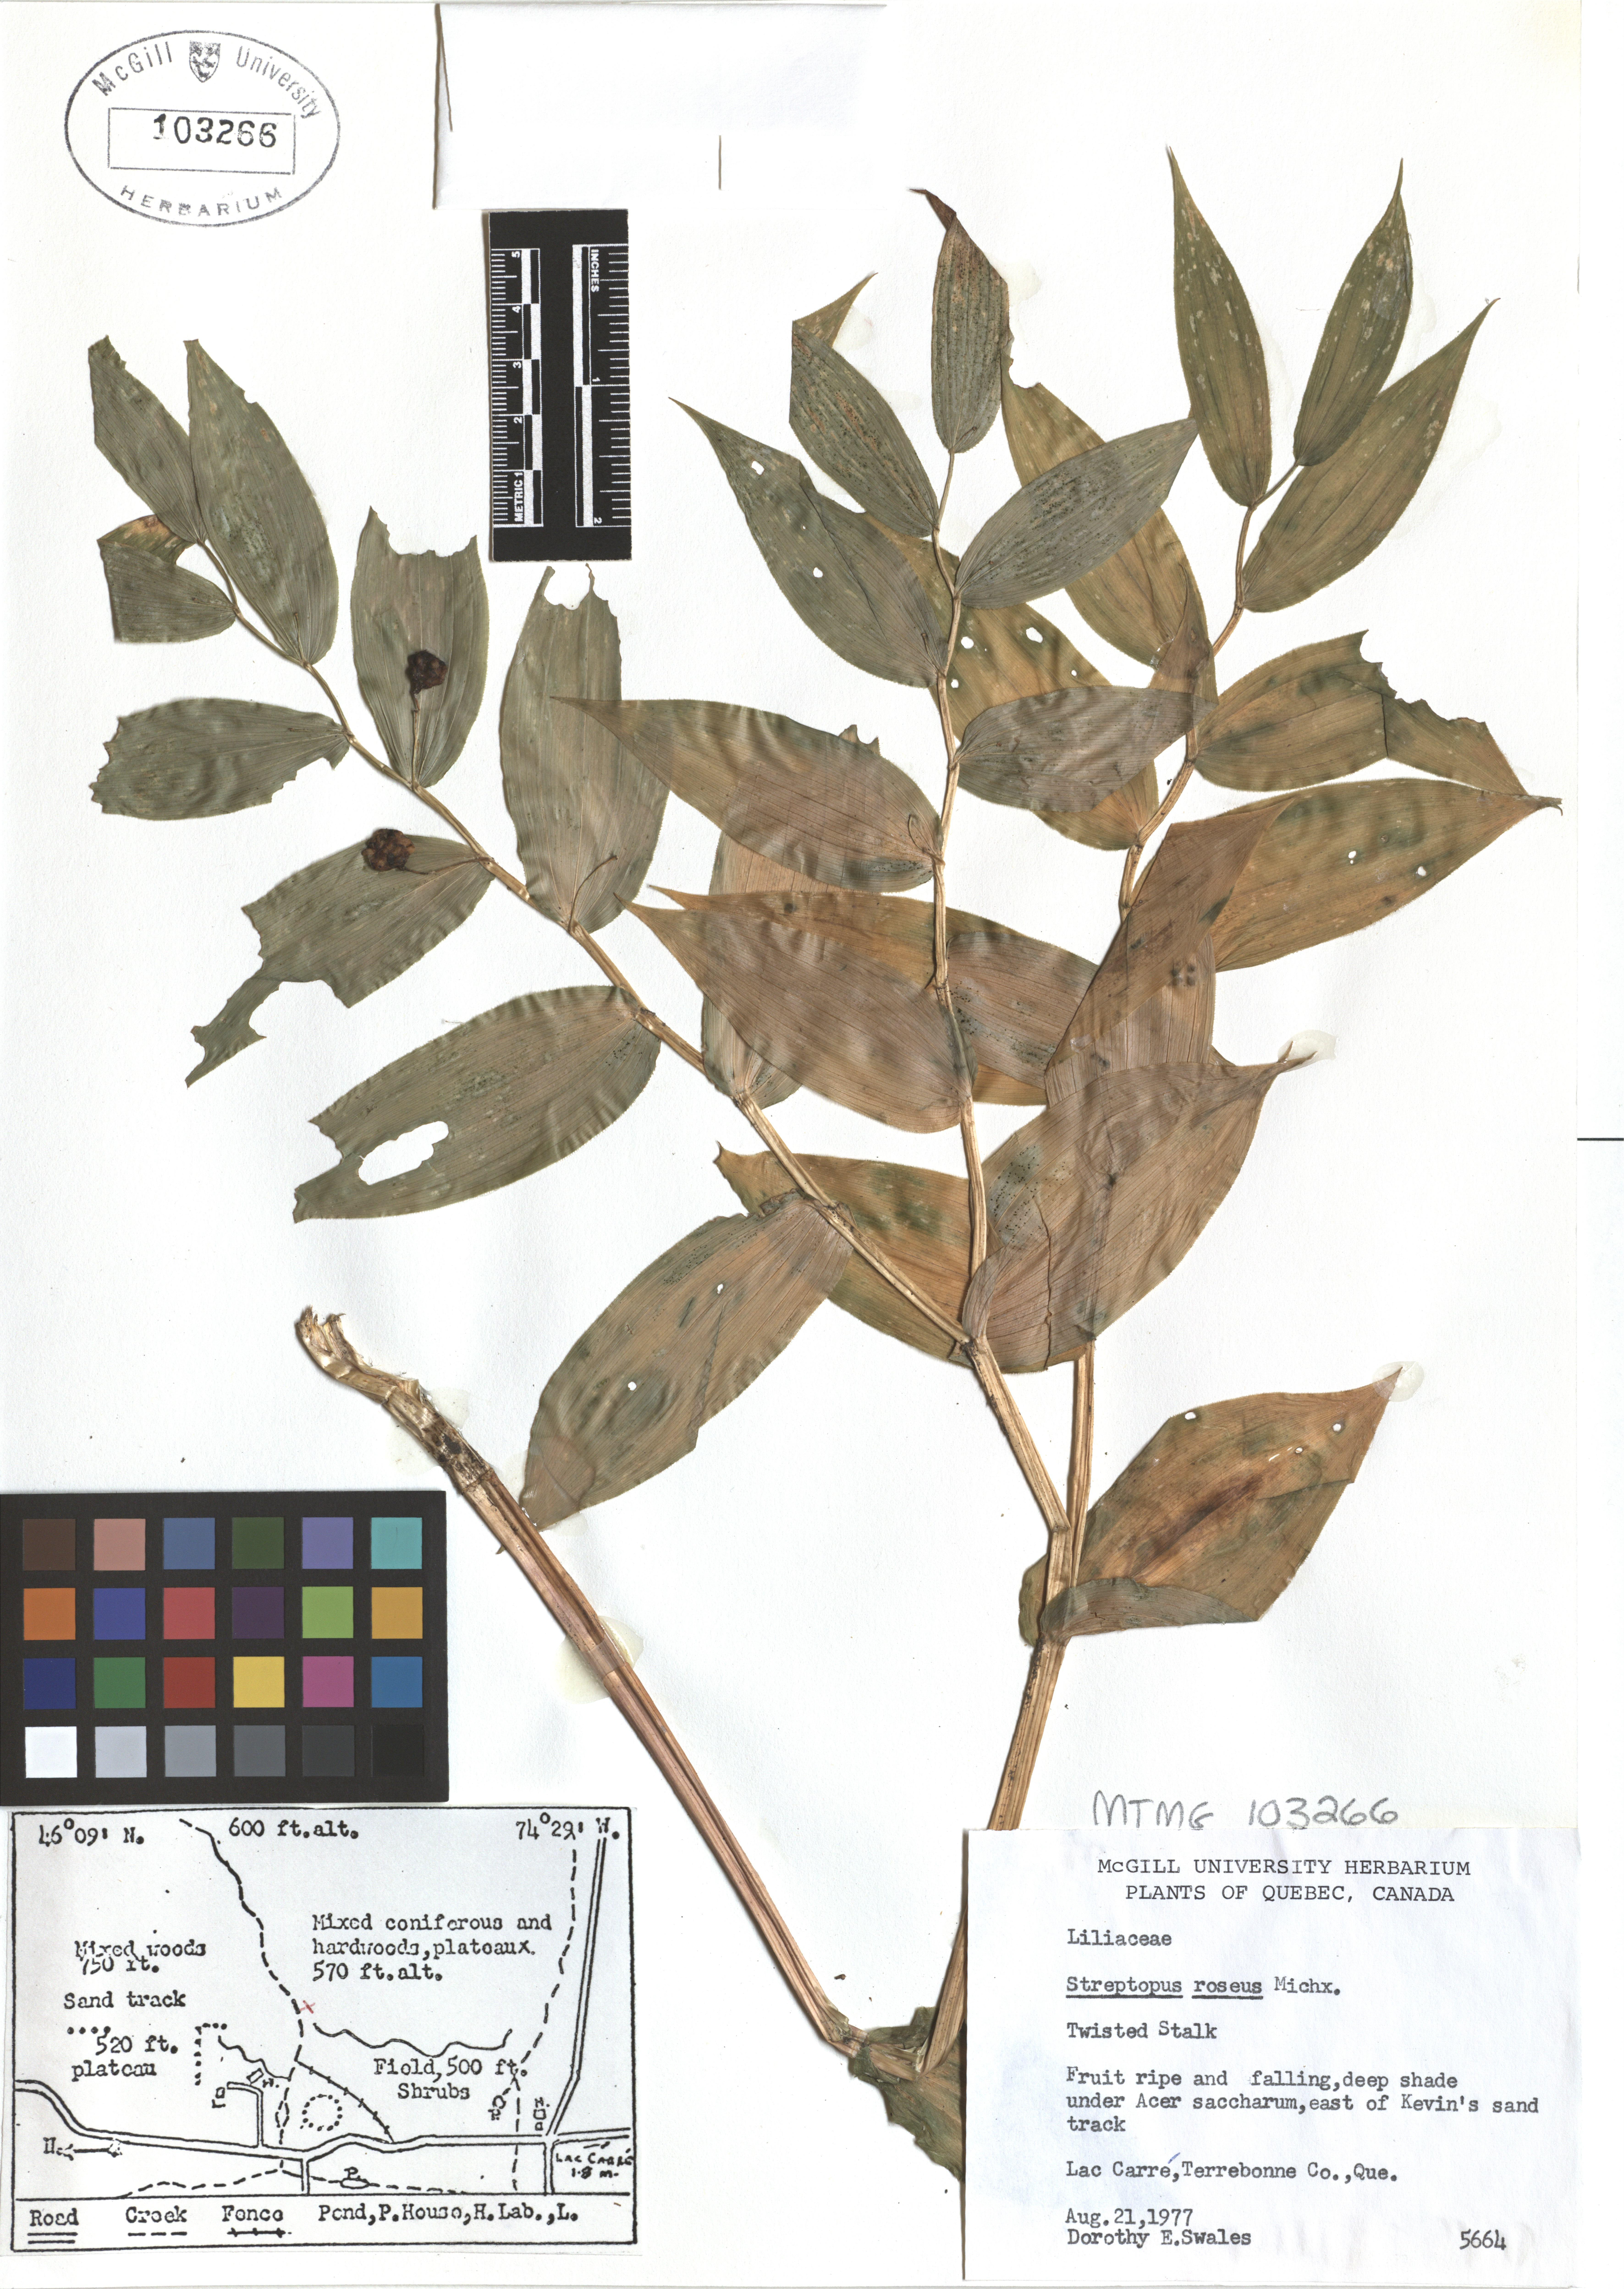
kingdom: Plantae
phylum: Tracheophyta
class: Liliopsida
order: Liliales
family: Liliaceae
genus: Streptopus
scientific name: Streptopus lanceolatus
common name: Rose mandarin
